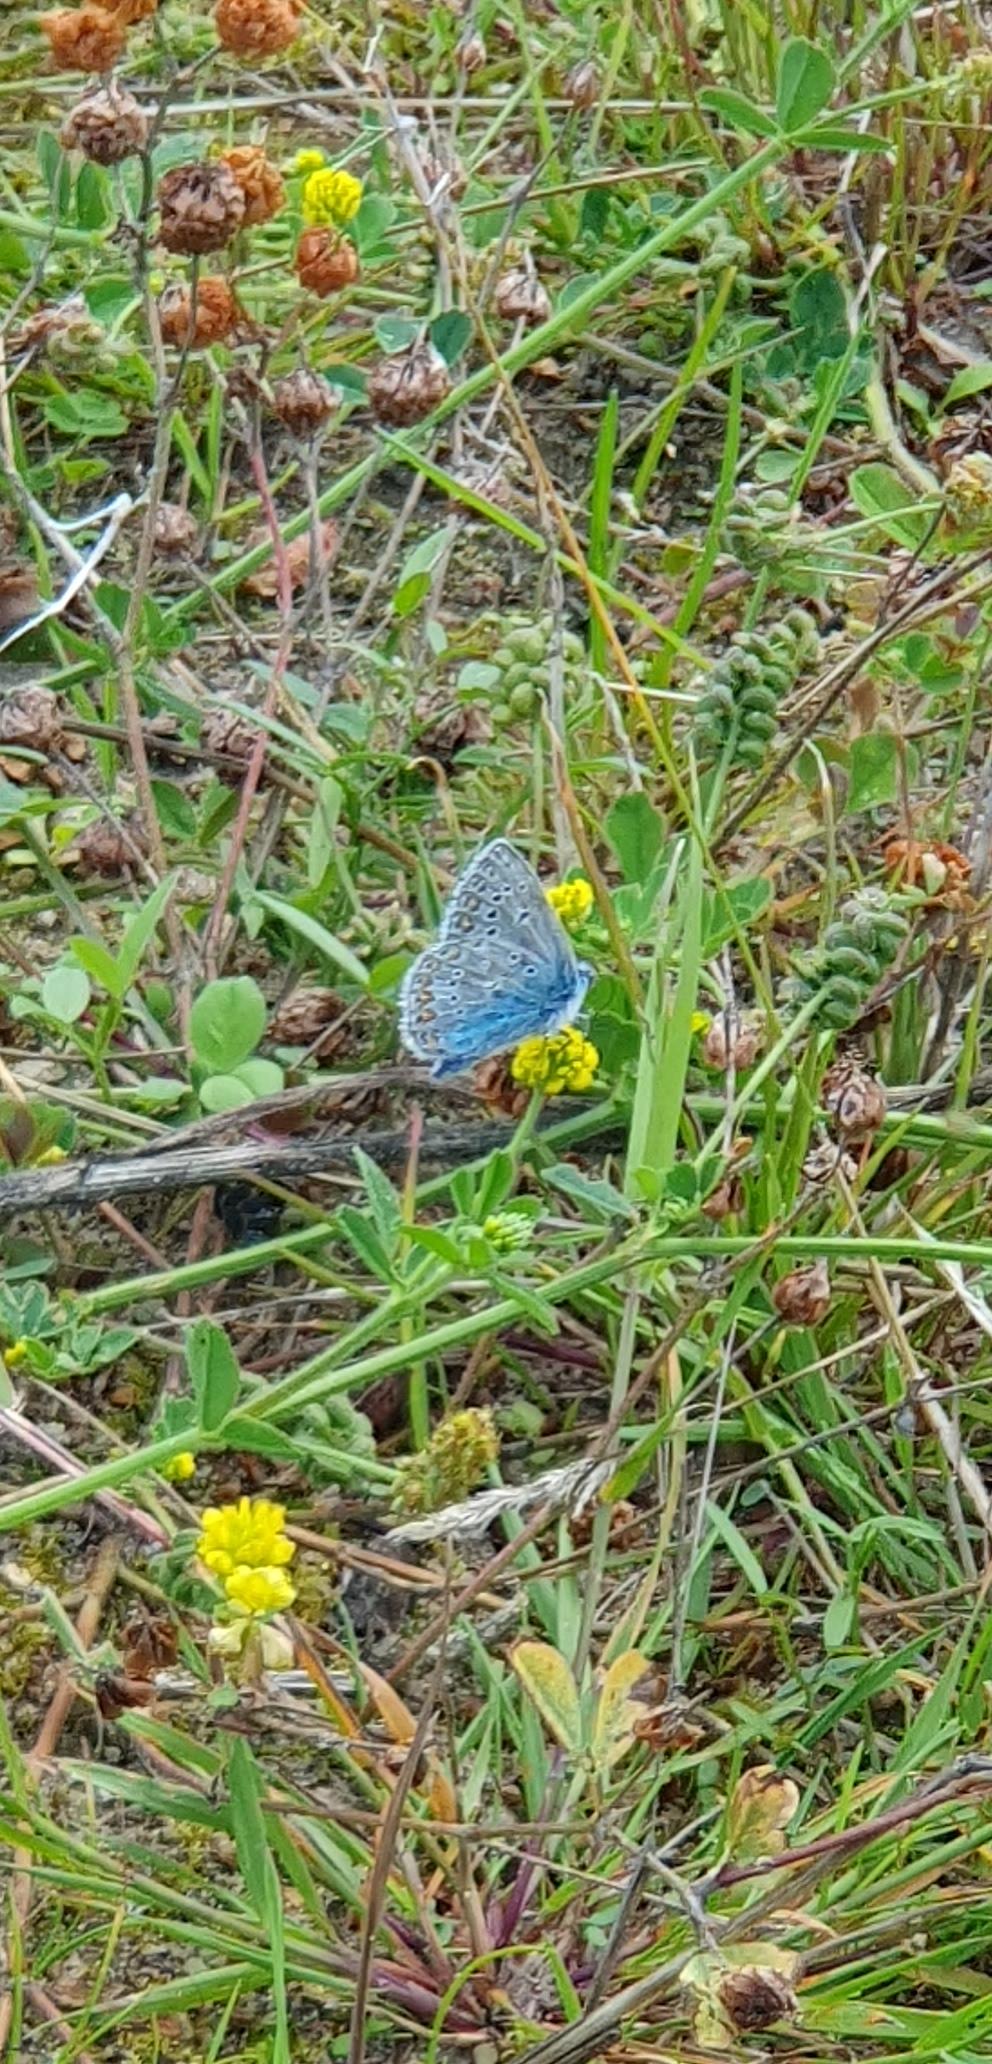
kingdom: Animalia
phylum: Arthropoda
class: Insecta
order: Lepidoptera
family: Lycaenidae
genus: Polyommatus
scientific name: Polyommatus icarus
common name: Almindelig blåfugl
